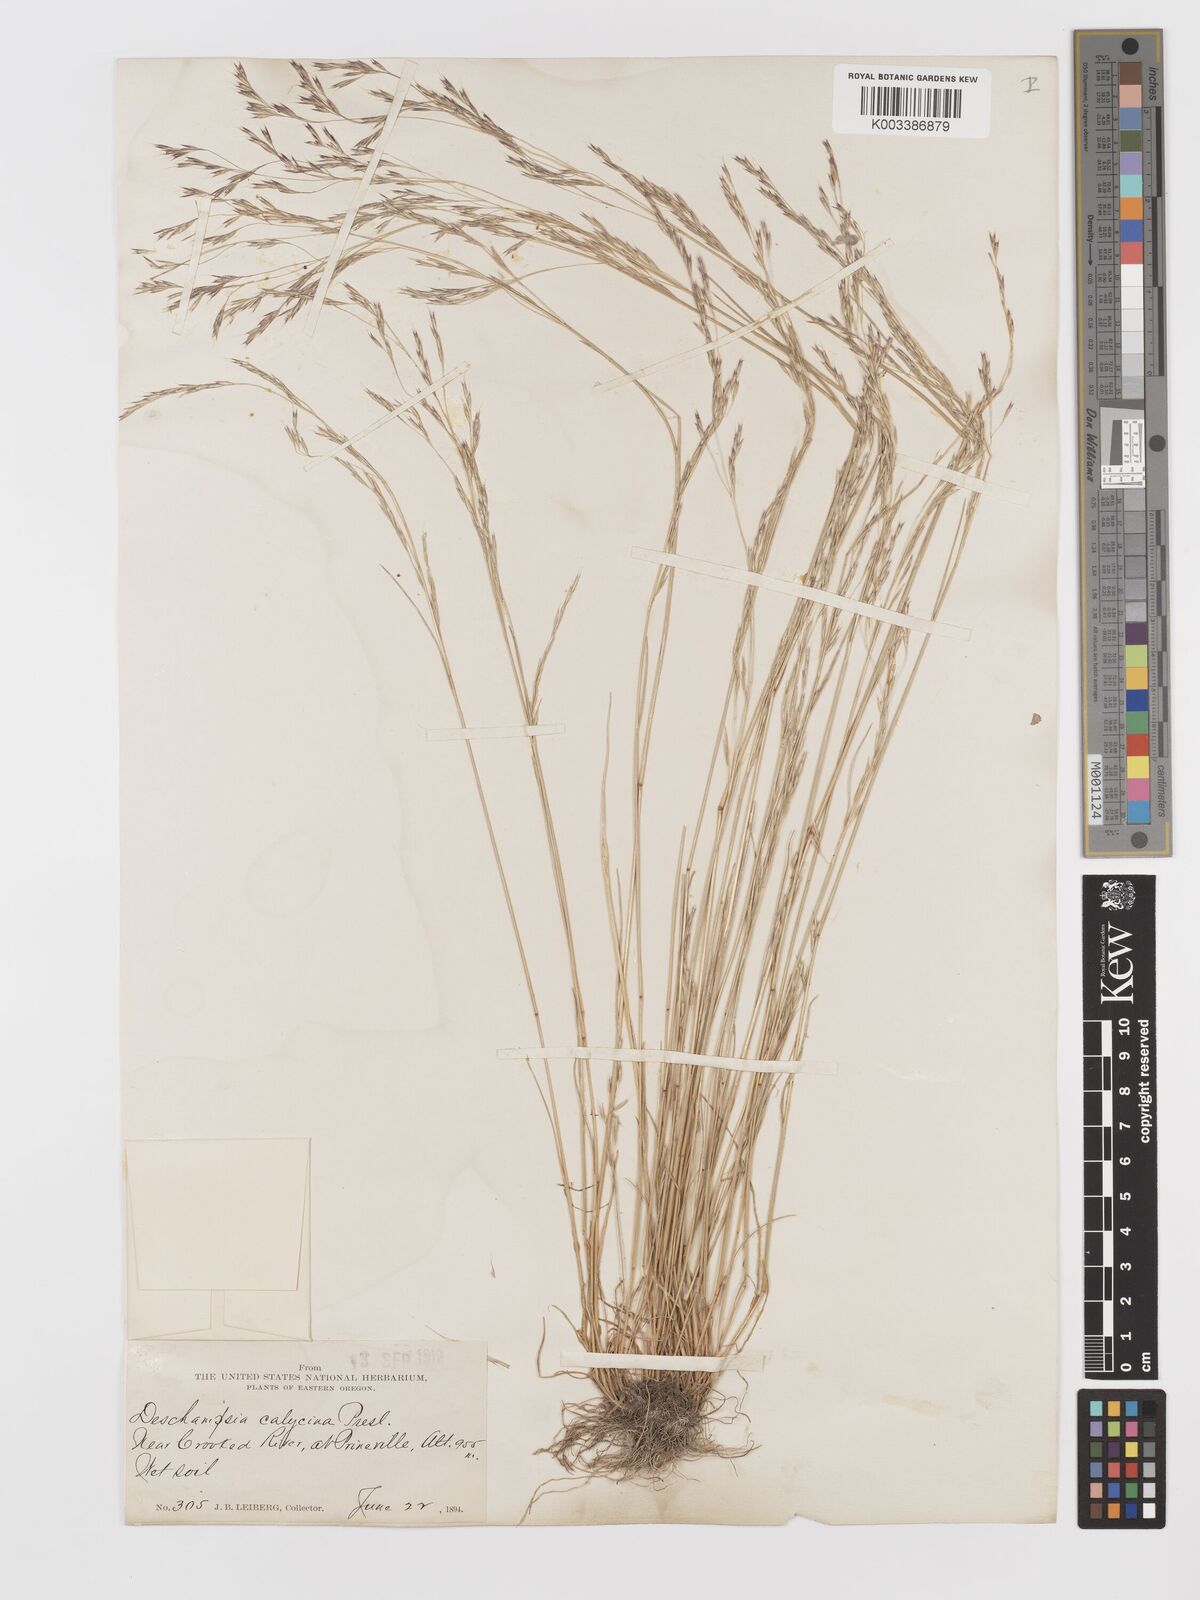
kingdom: Plantae
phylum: Tracheophyta
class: Liliopsida
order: Poales
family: Poaceae
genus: Deschampsia
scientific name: Deschampsia danthonioides
